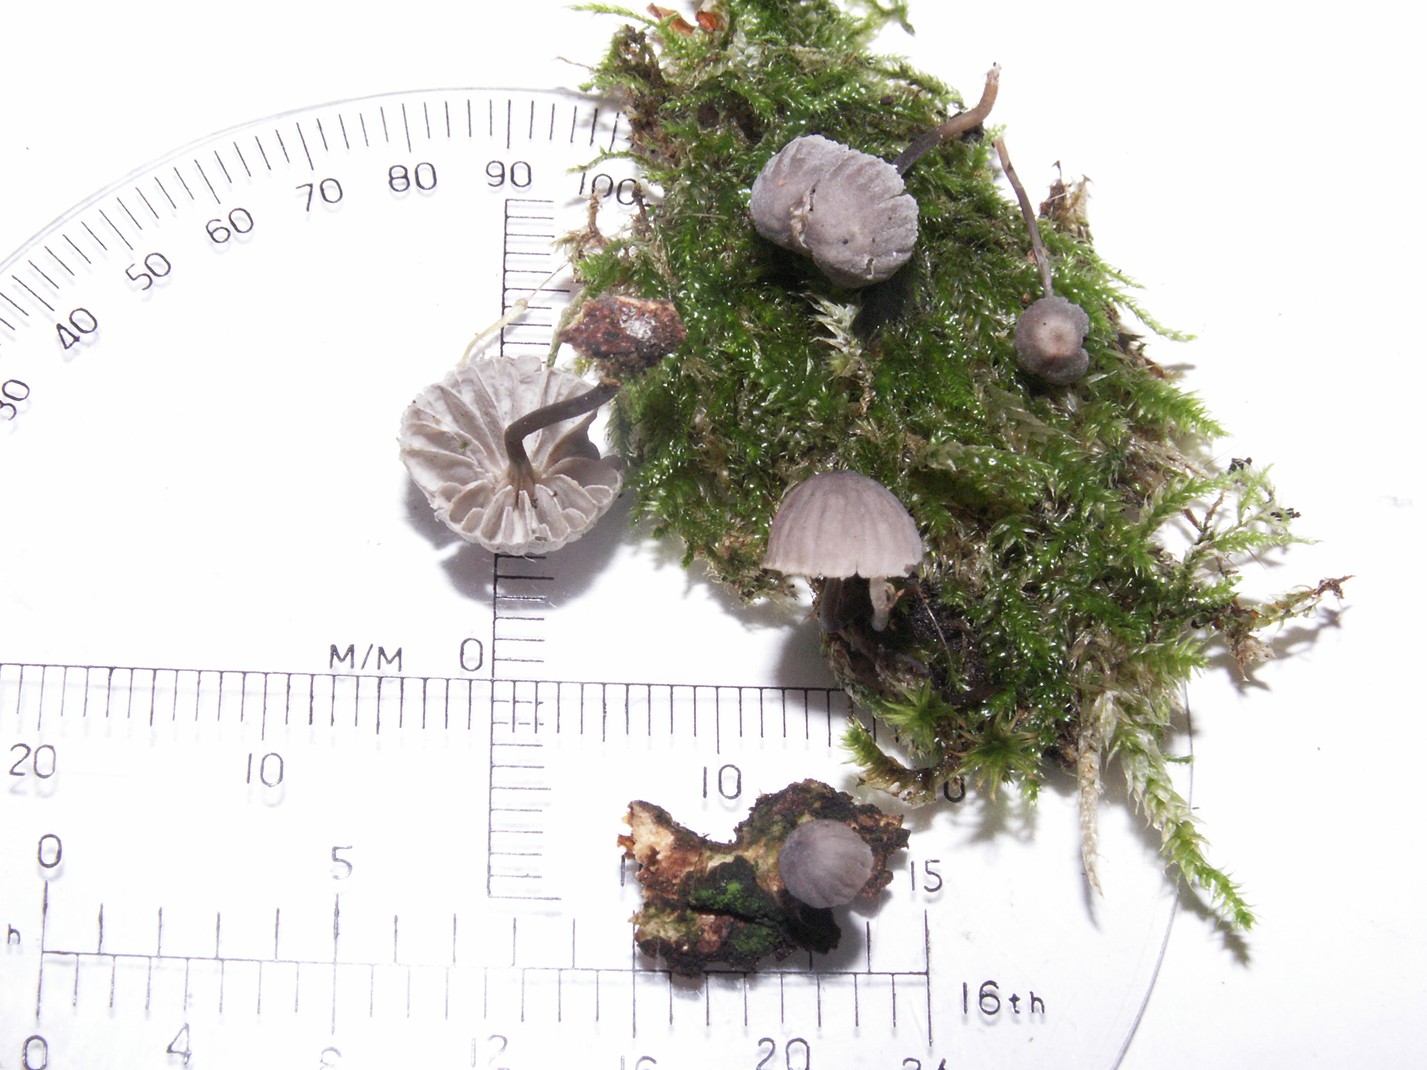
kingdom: Fungi
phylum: Basidiomycota
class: Agaricomycetes
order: Agaricales
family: Mycenaceae
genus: Mycena
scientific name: Mycena pseudocorticola
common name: gråblå bark-huesvamp
